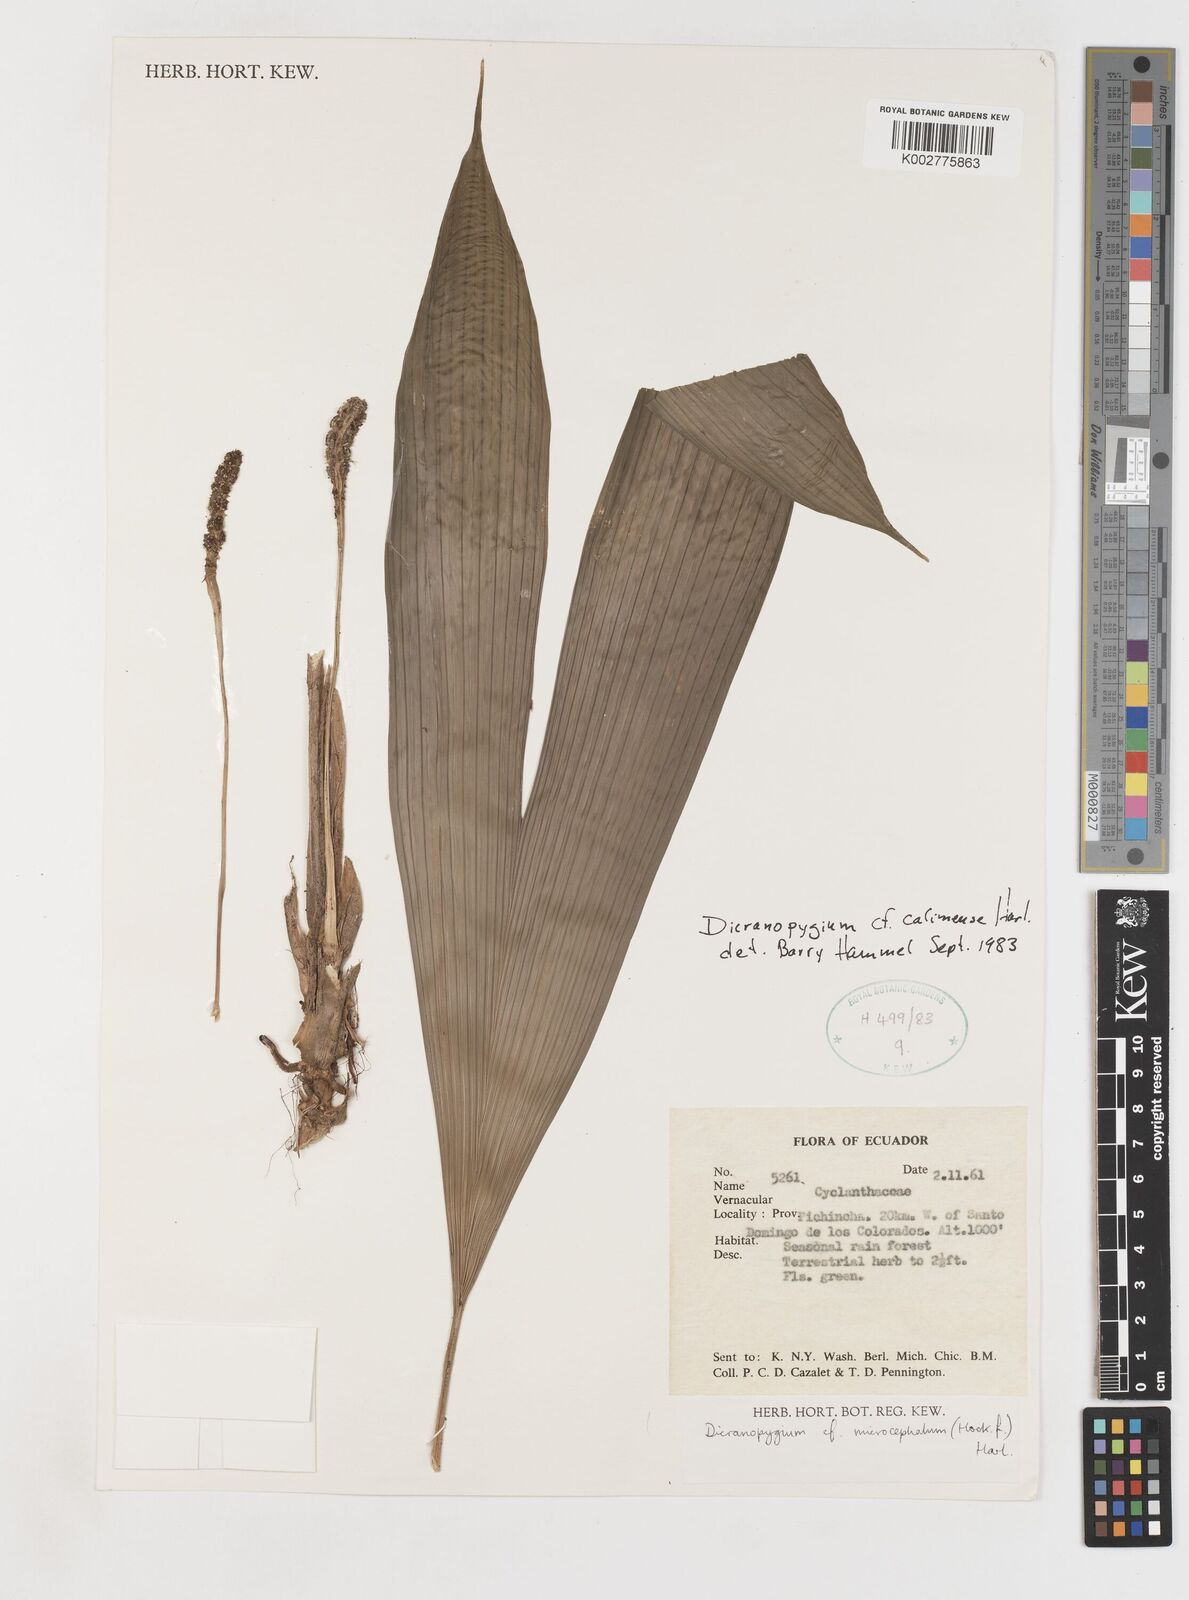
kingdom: Plantae
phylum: Tracheophyta
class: Liliopsida
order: Pandanales
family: Cyclanthaceae
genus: Dicranopygium
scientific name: Dicranopygium calimense
